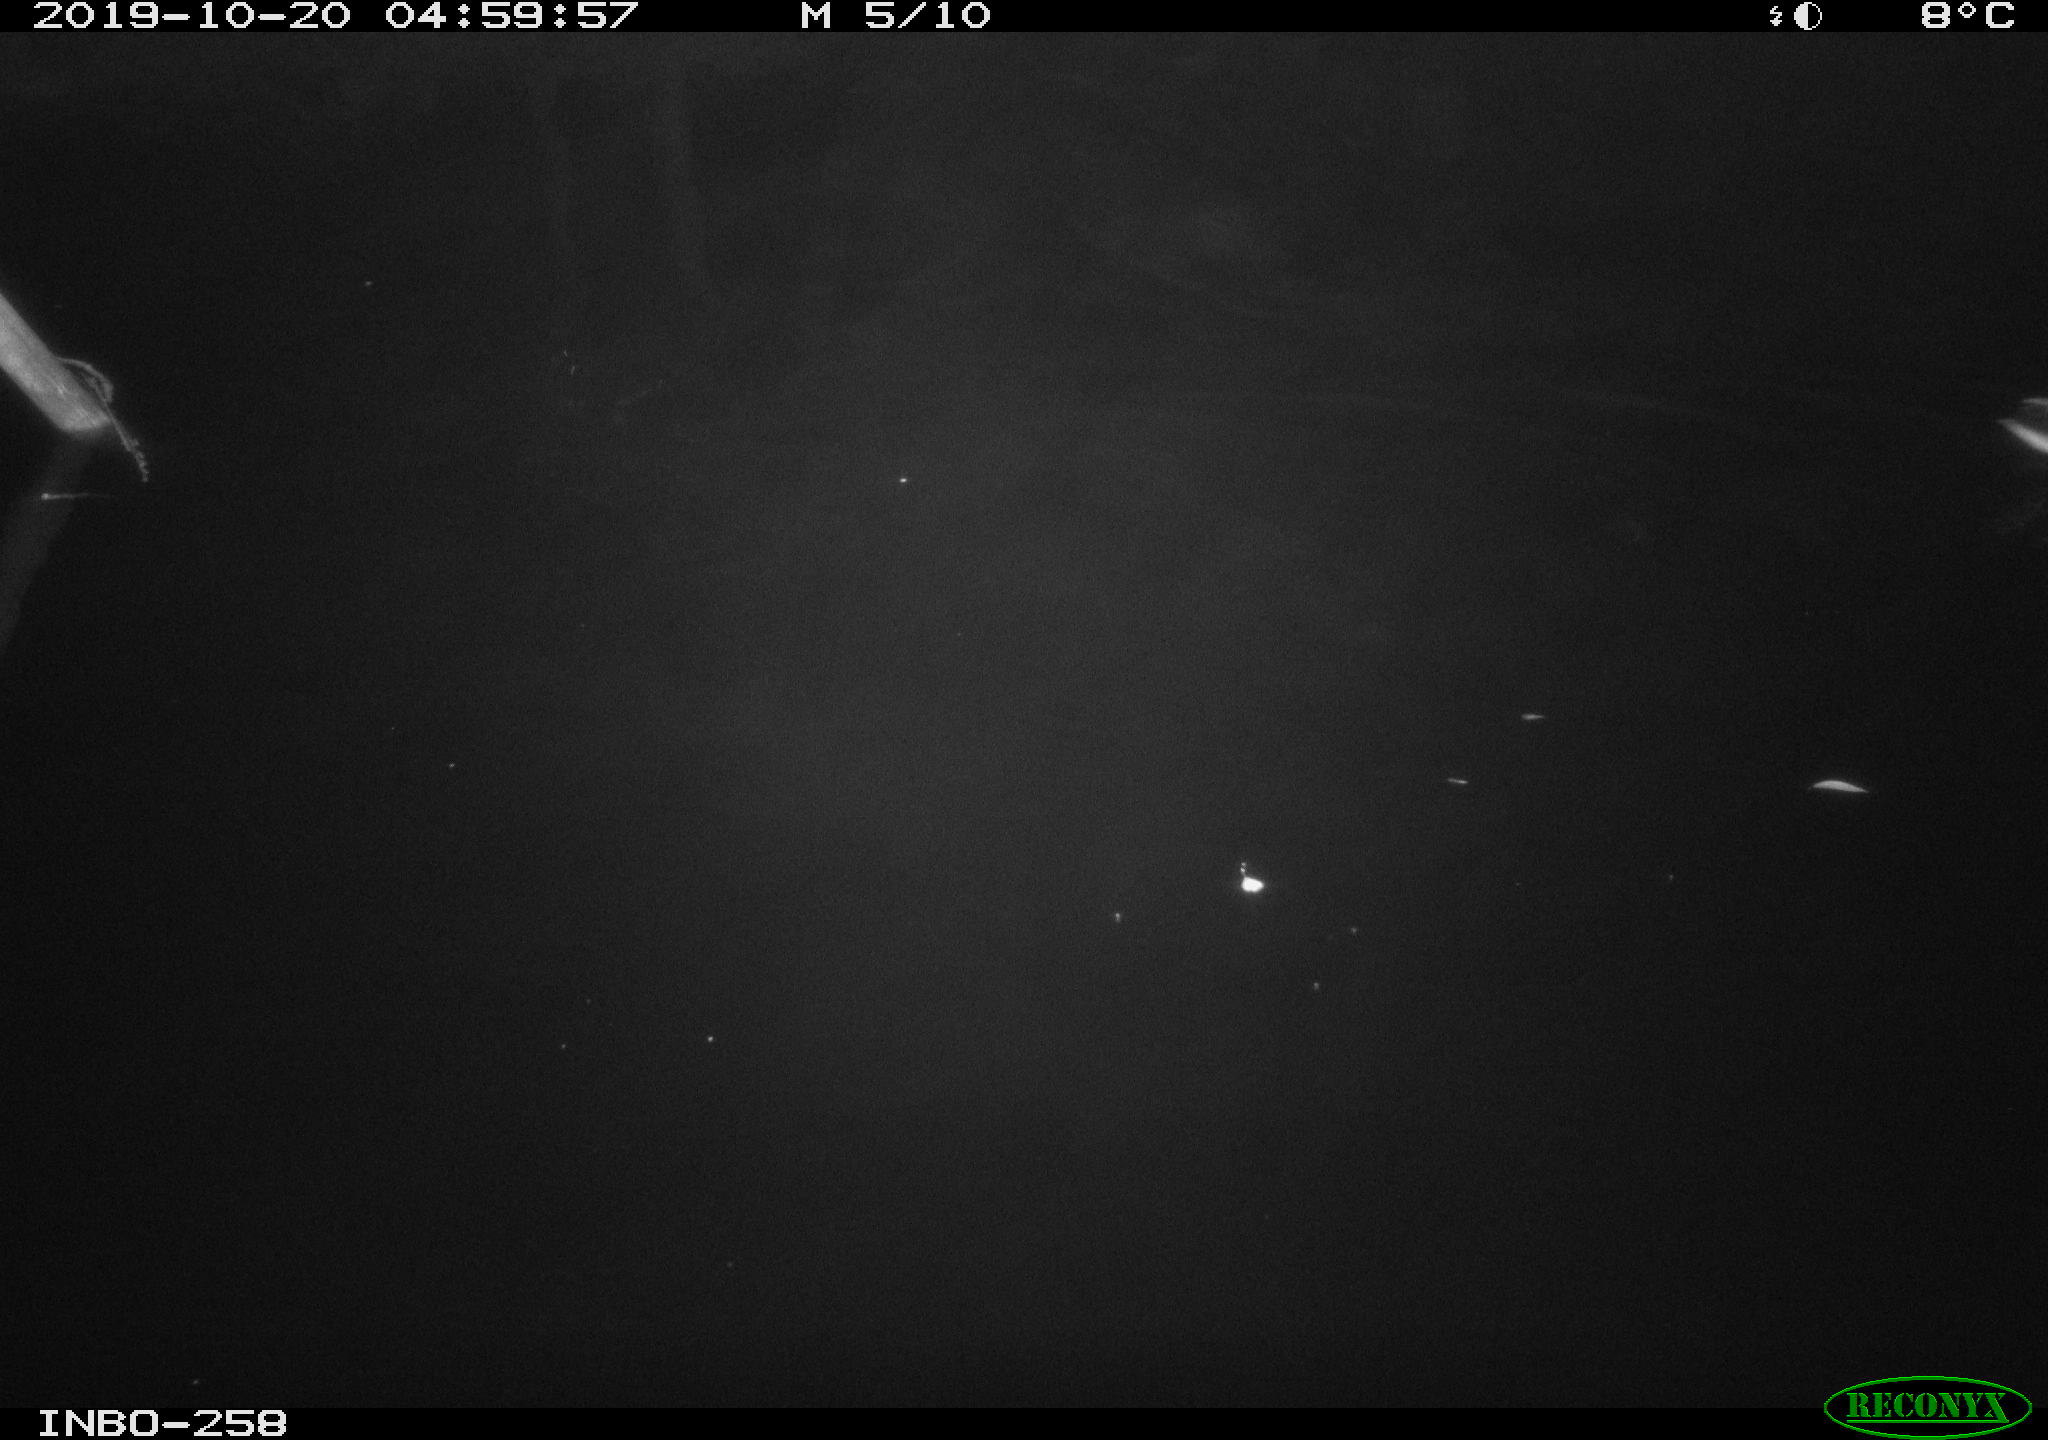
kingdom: Animalia
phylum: Chordata
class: Aves
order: Anseriformes
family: Anatidae
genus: Anas
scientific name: Anas platyrhynchos
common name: Mallard
